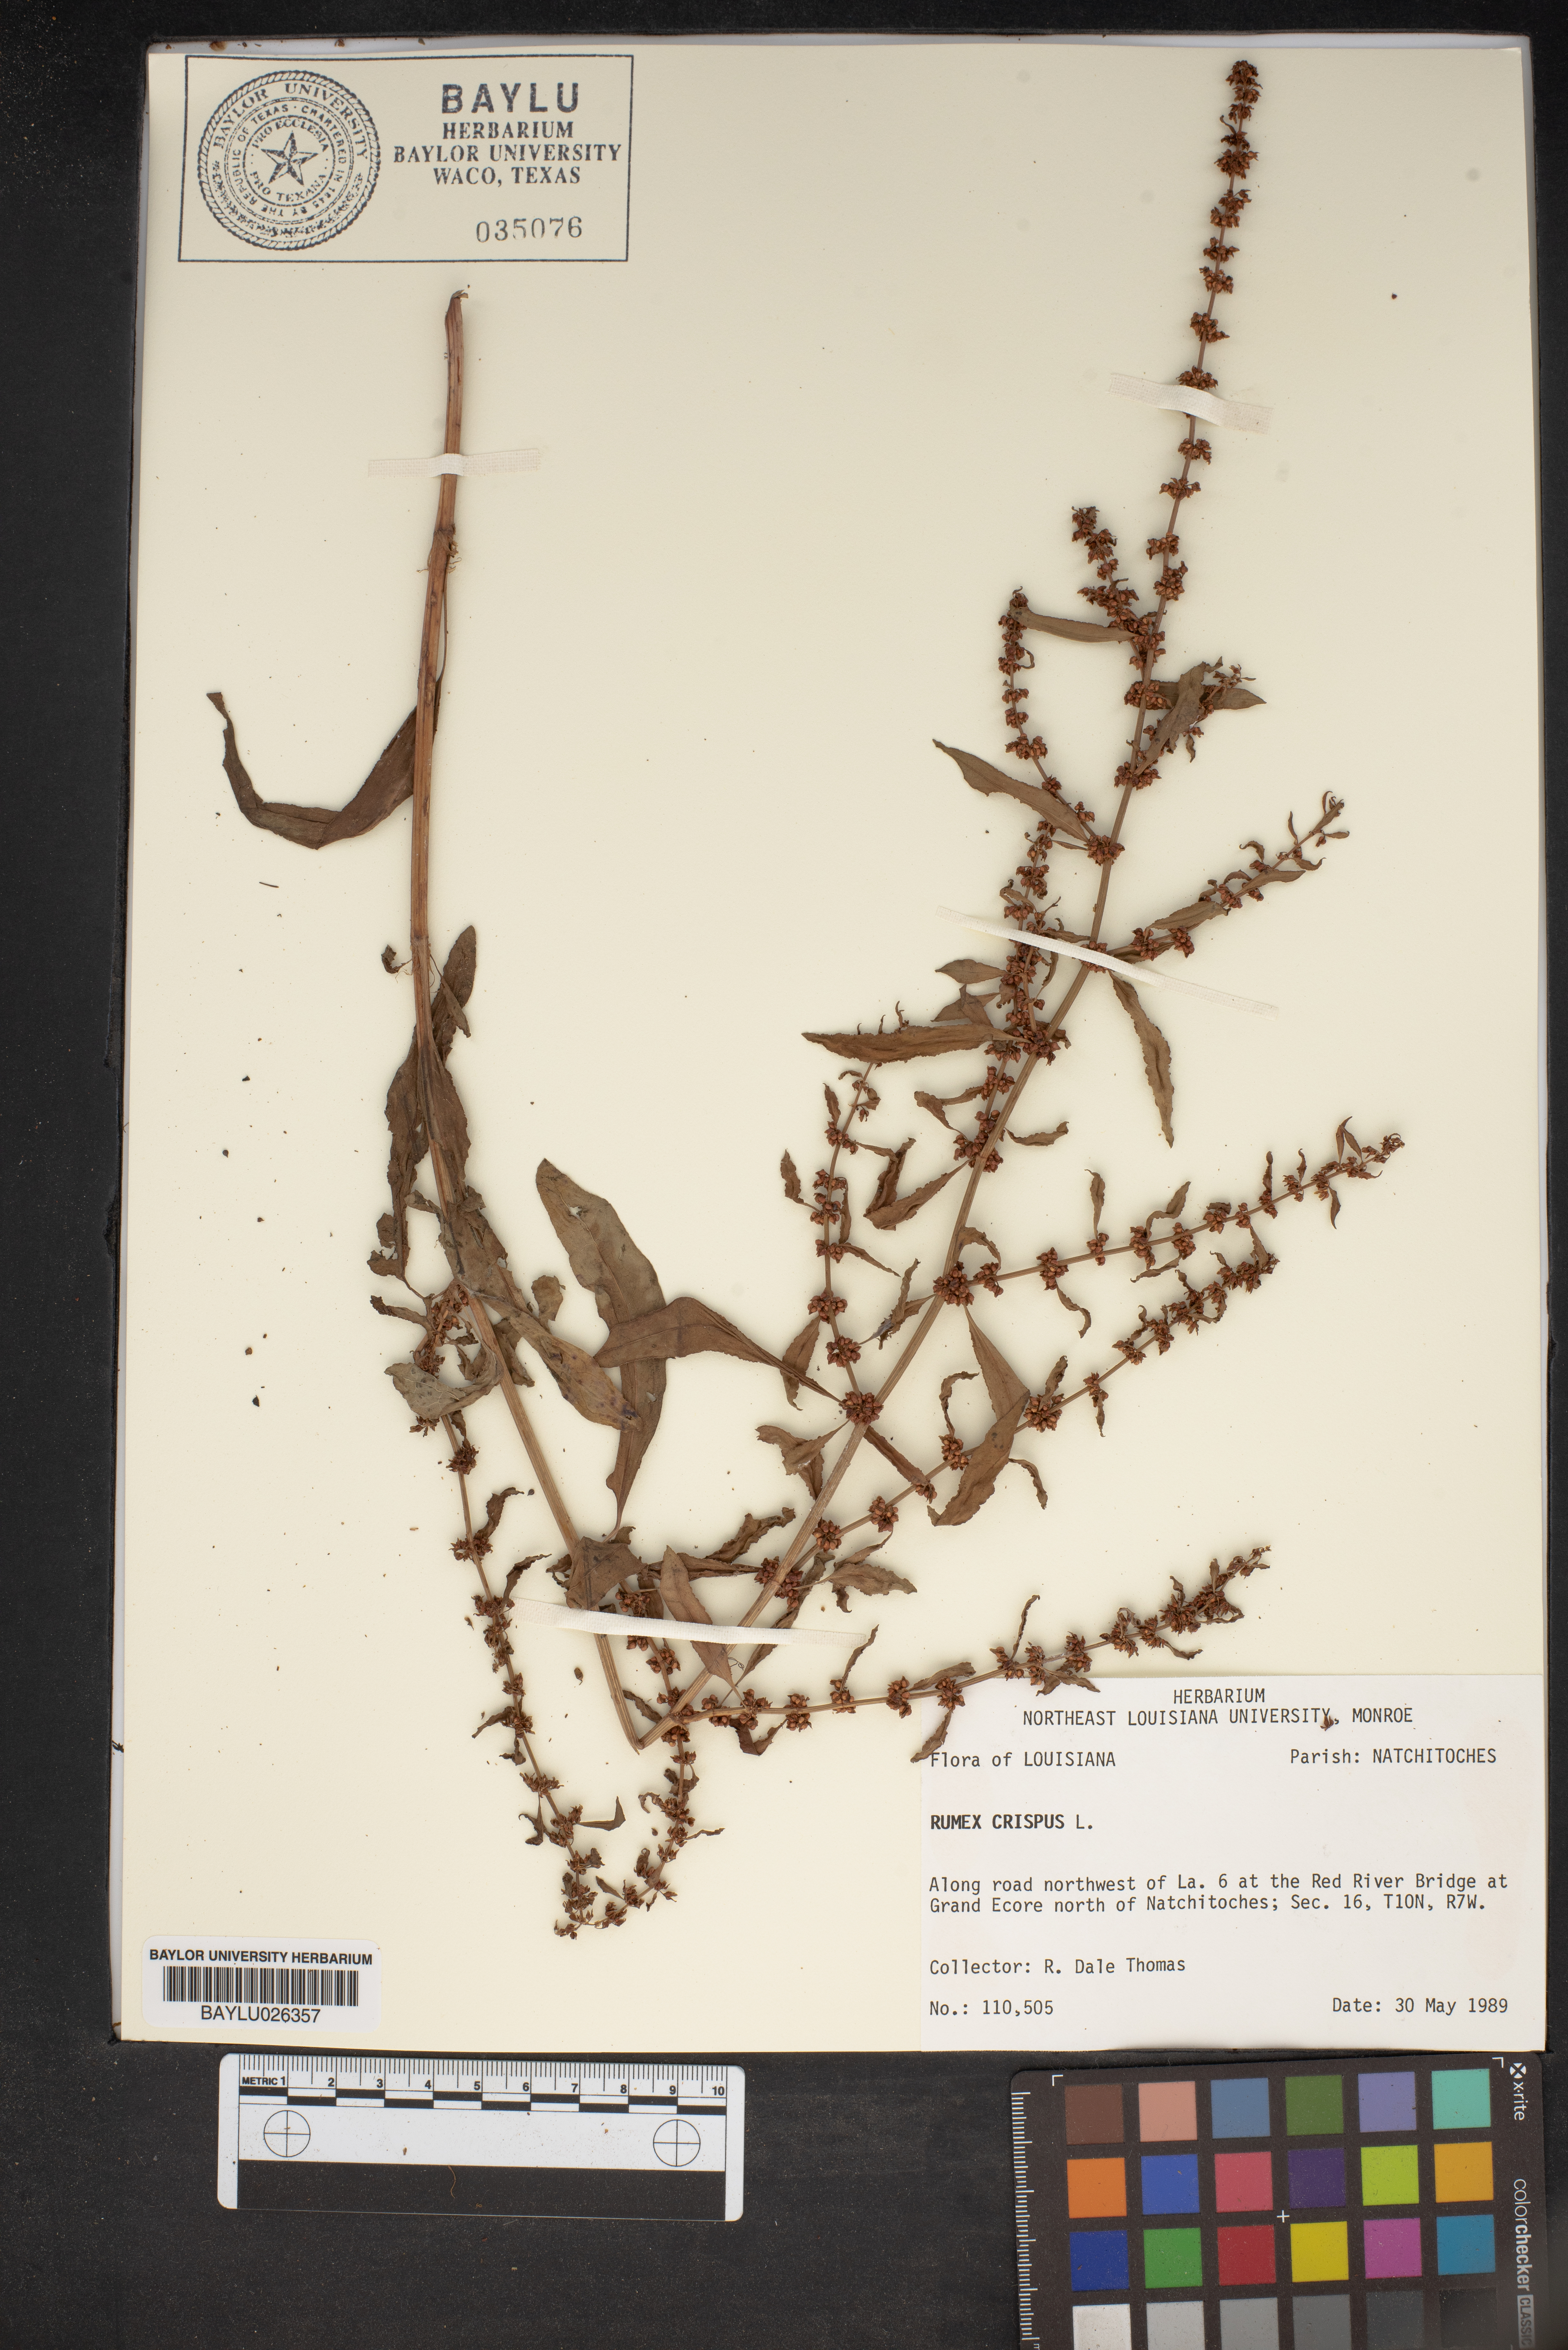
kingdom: Plantae
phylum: Tracheophyta
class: Magnoliopsida
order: Caryophyllales
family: Polygonaceae
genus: Rumex
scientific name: Rumex crispus
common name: Curled dock
